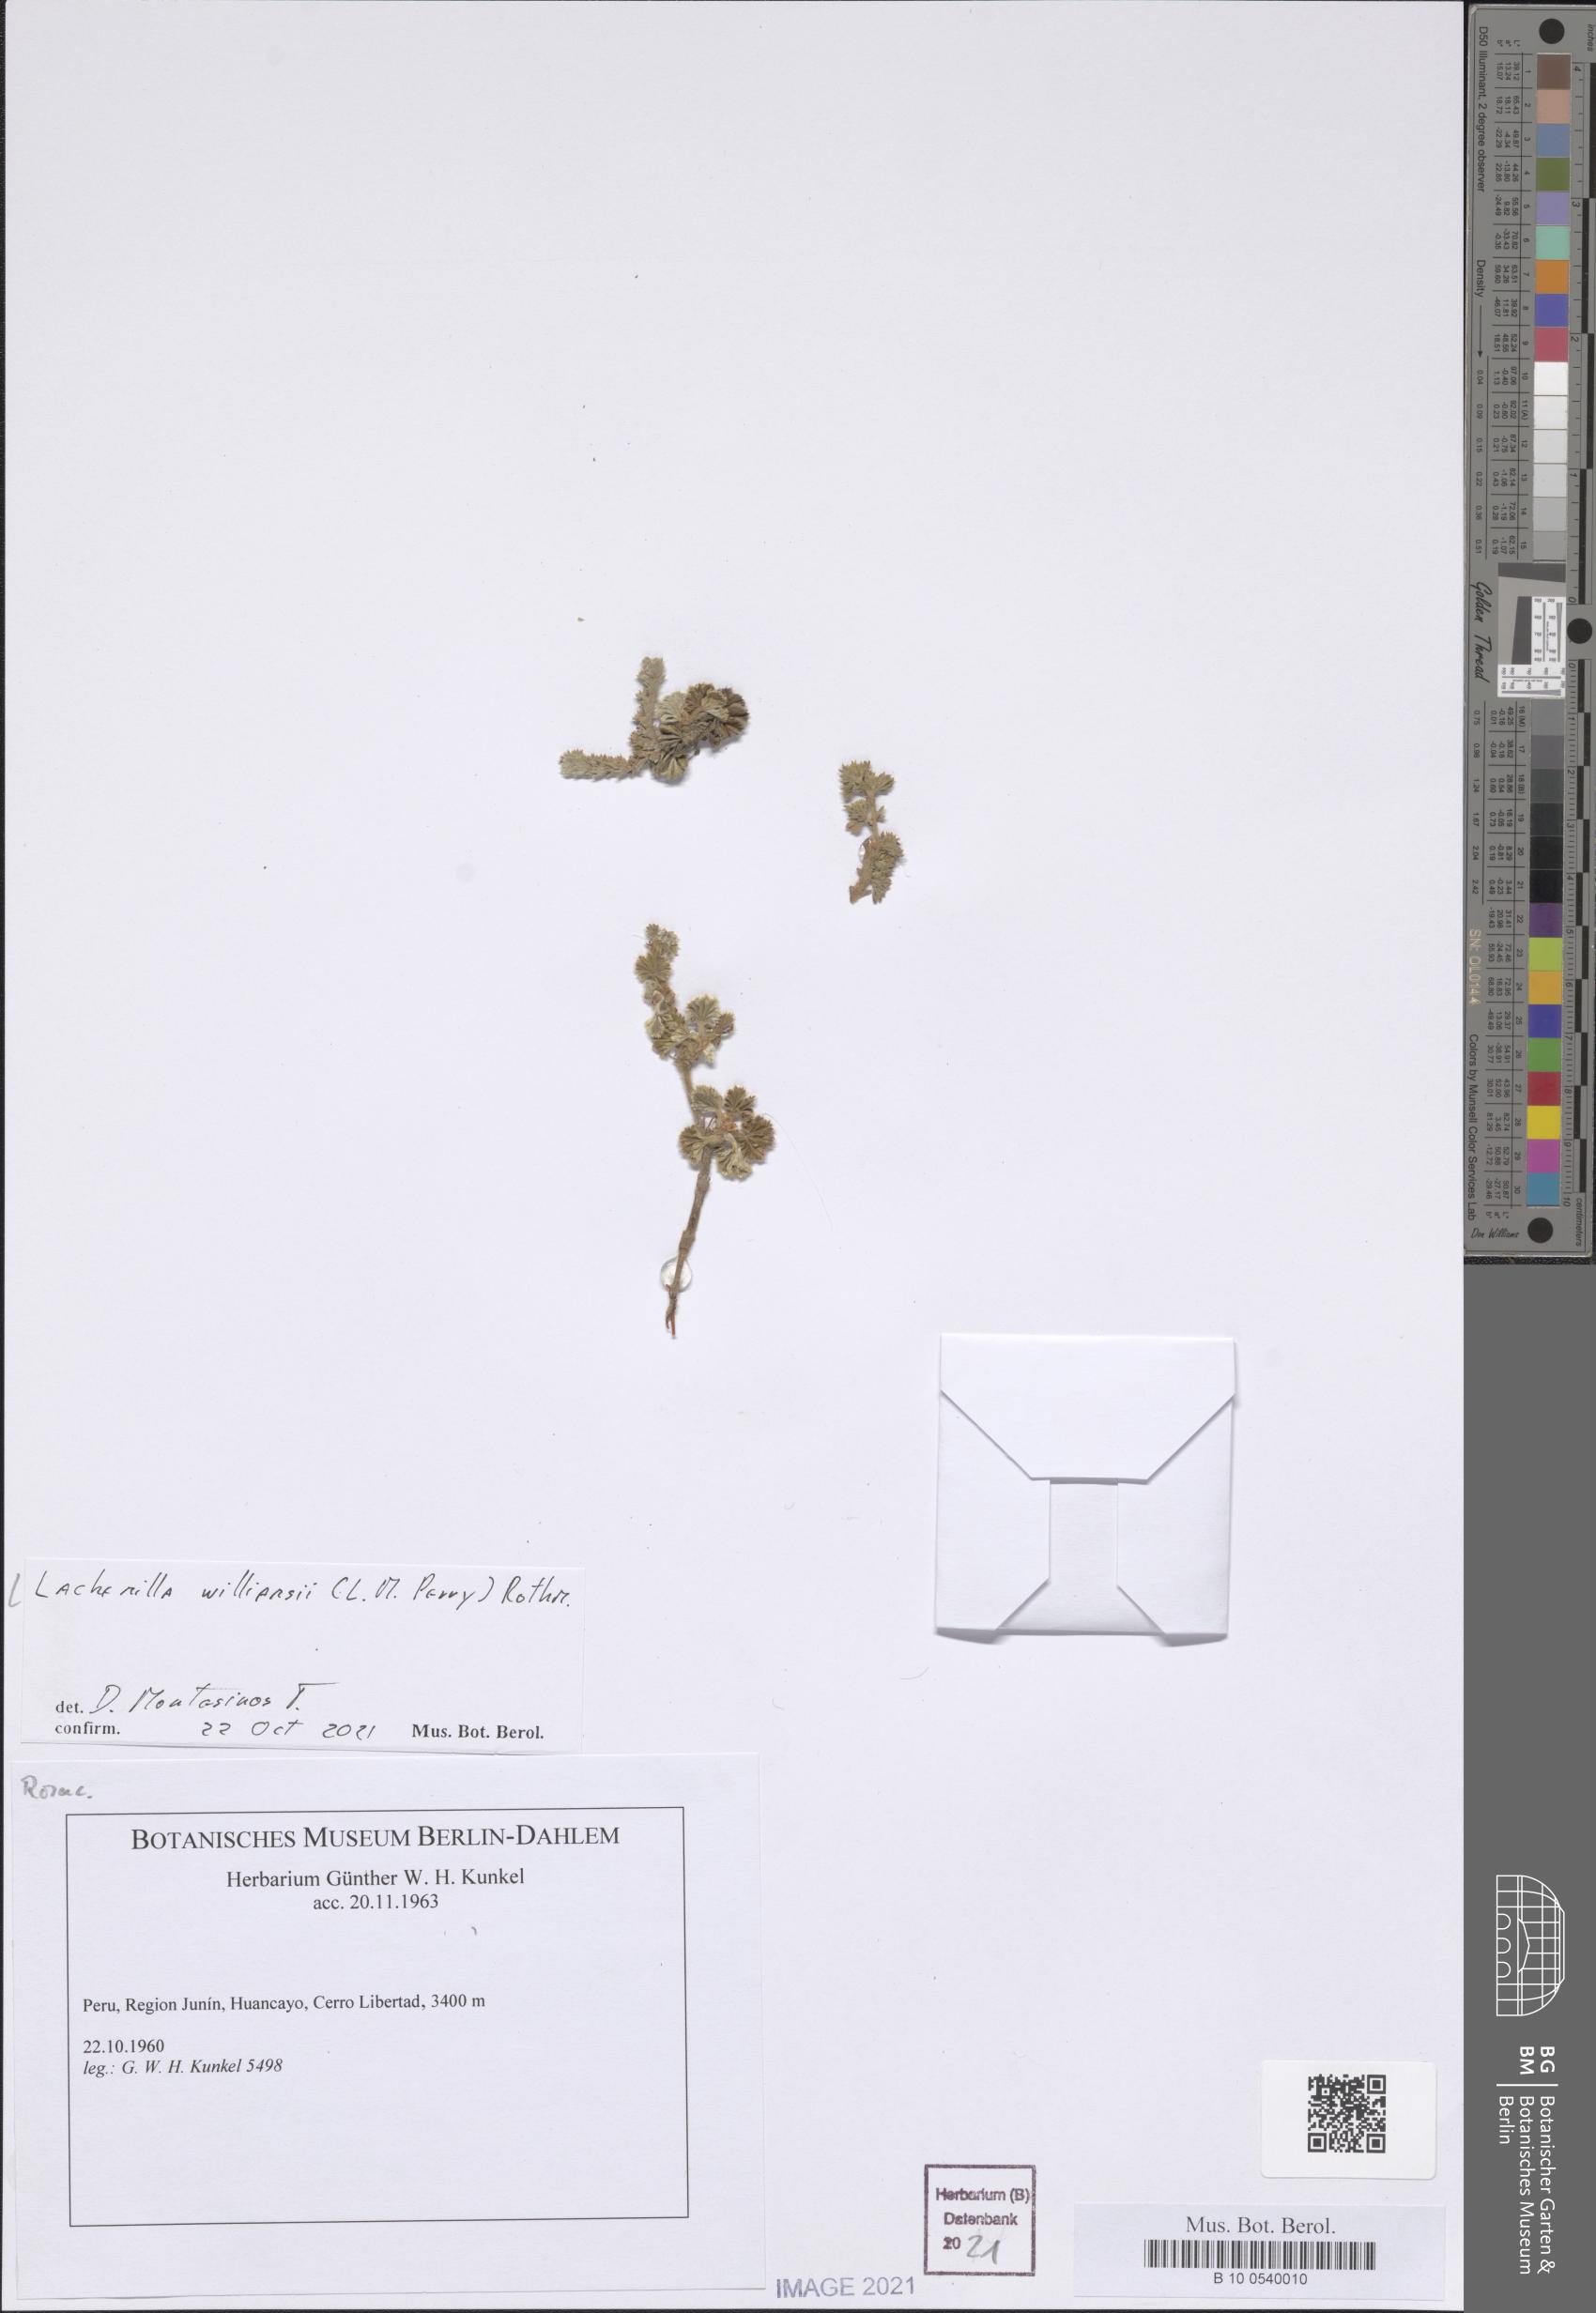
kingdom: Plantae
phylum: Tracheophyta
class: Magnoliopsida
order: Rosales
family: Rosaceae
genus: Lachemilla
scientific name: Lachemilla williamsii
